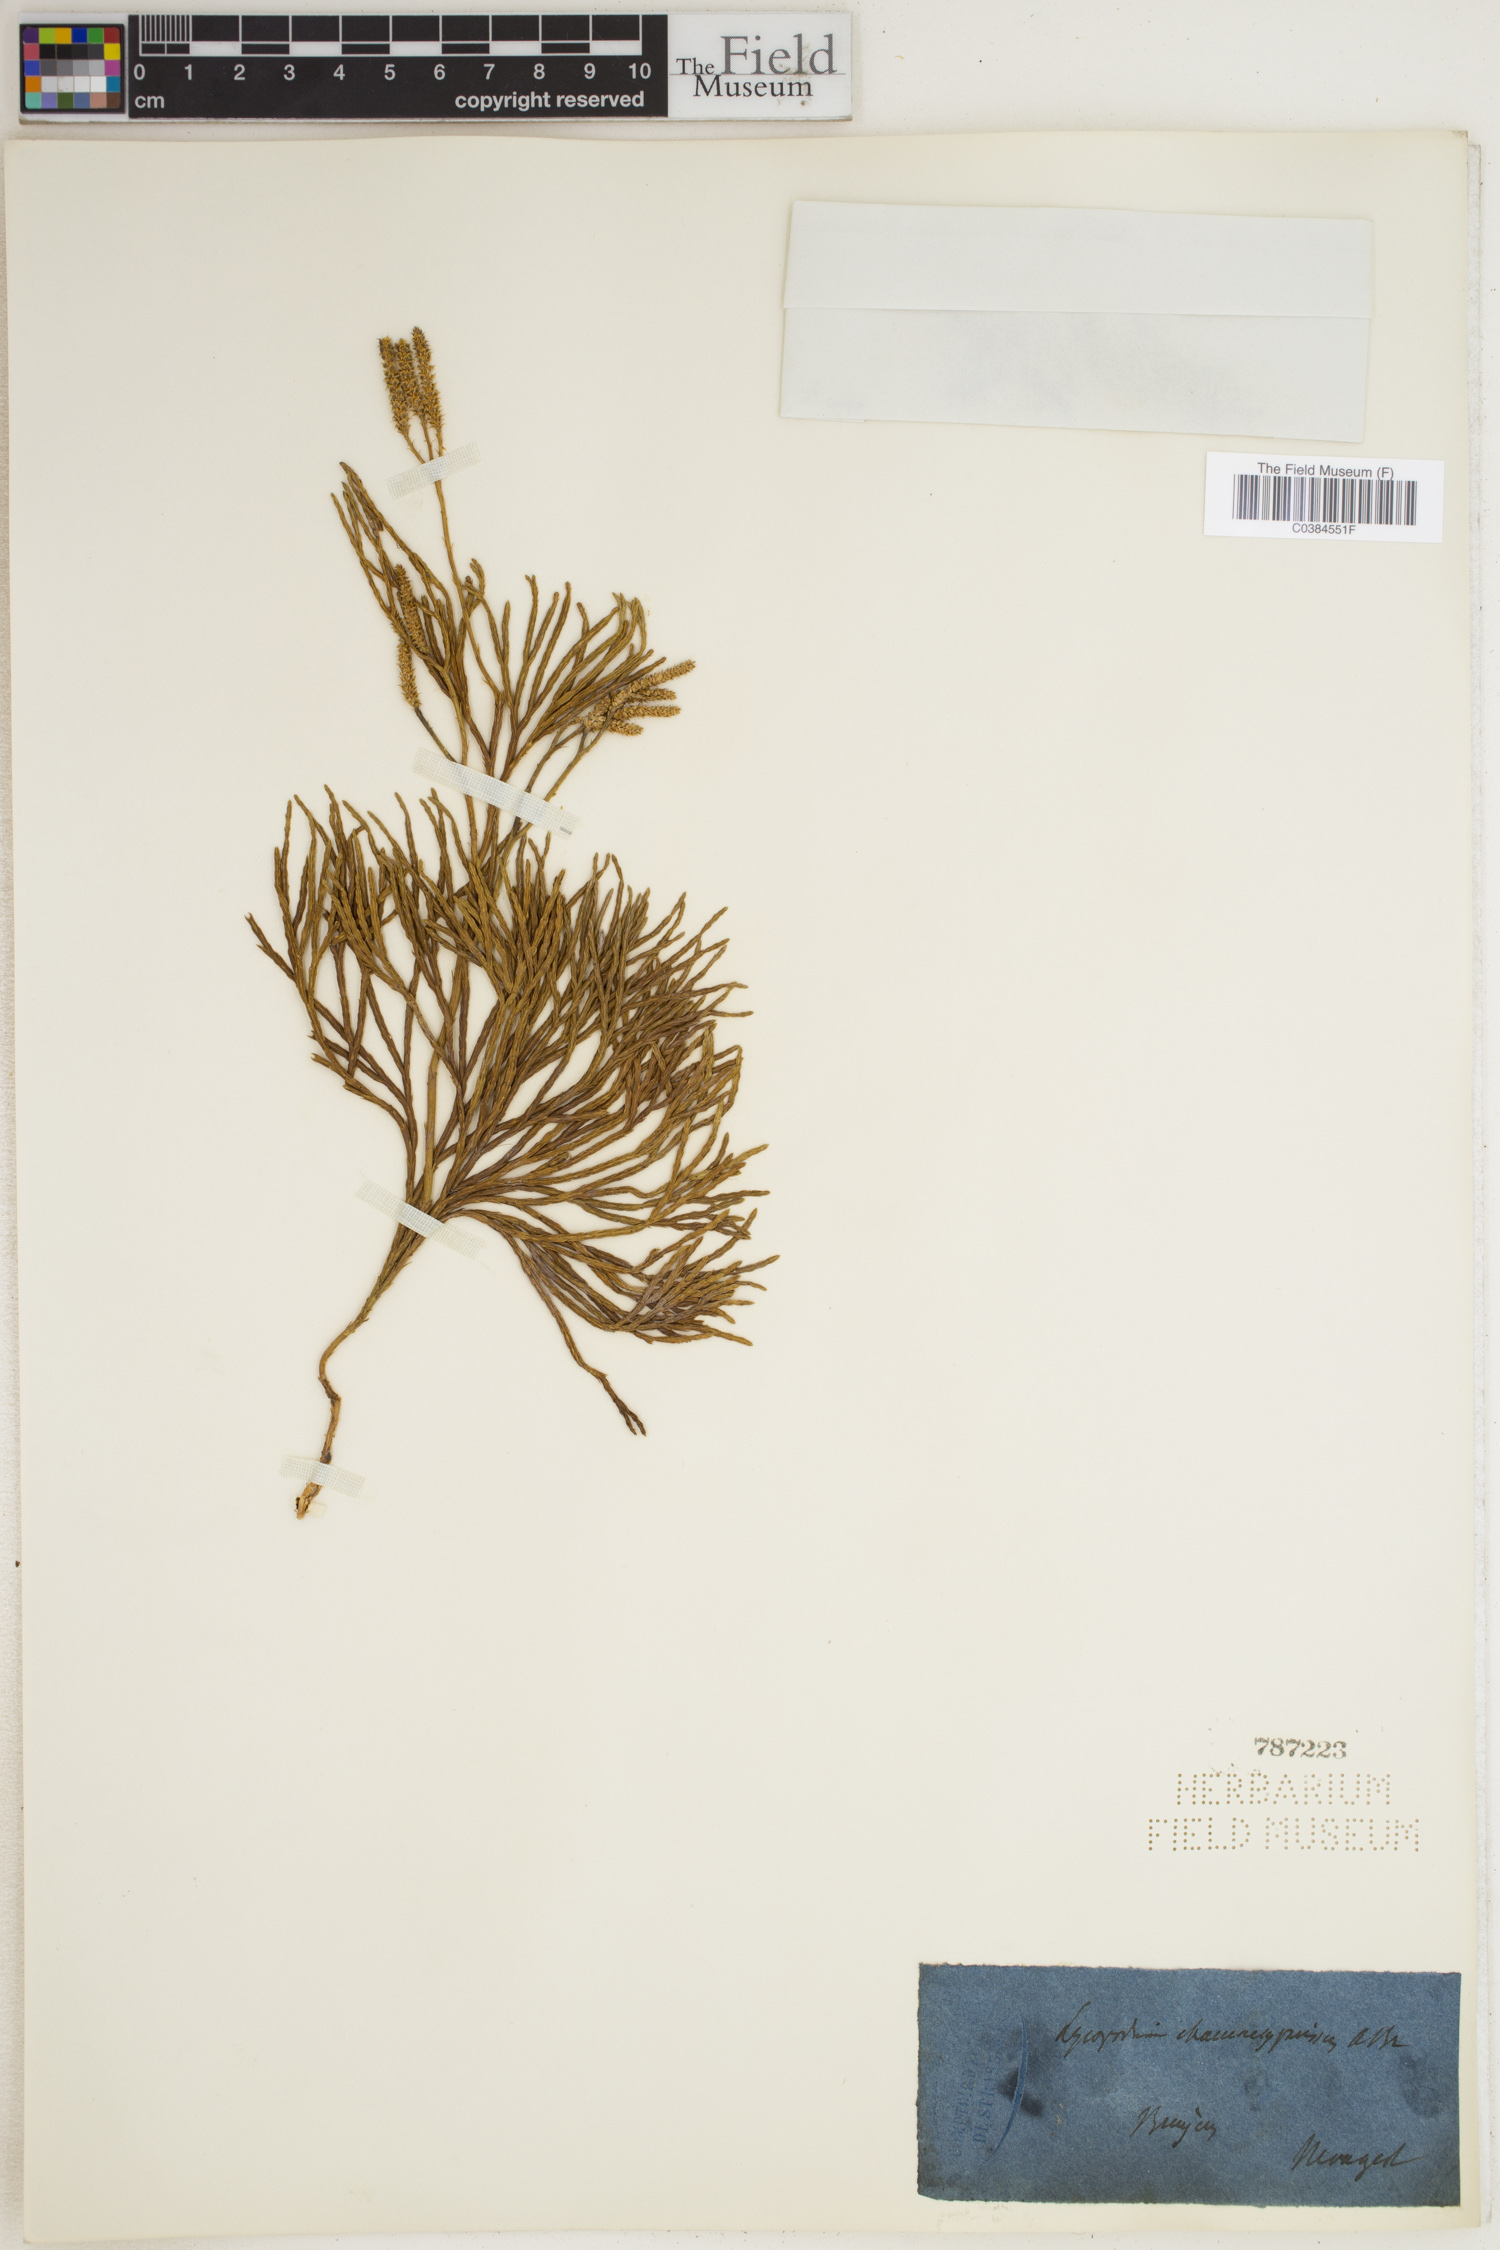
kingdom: Plantae
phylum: Tracheophyta
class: Lycopodiopsida
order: Lycopodiales
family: Lycopodiaceae
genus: Diphasiastrum
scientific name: Diphasiastrum tristachyum
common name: Blue ground-cedar
